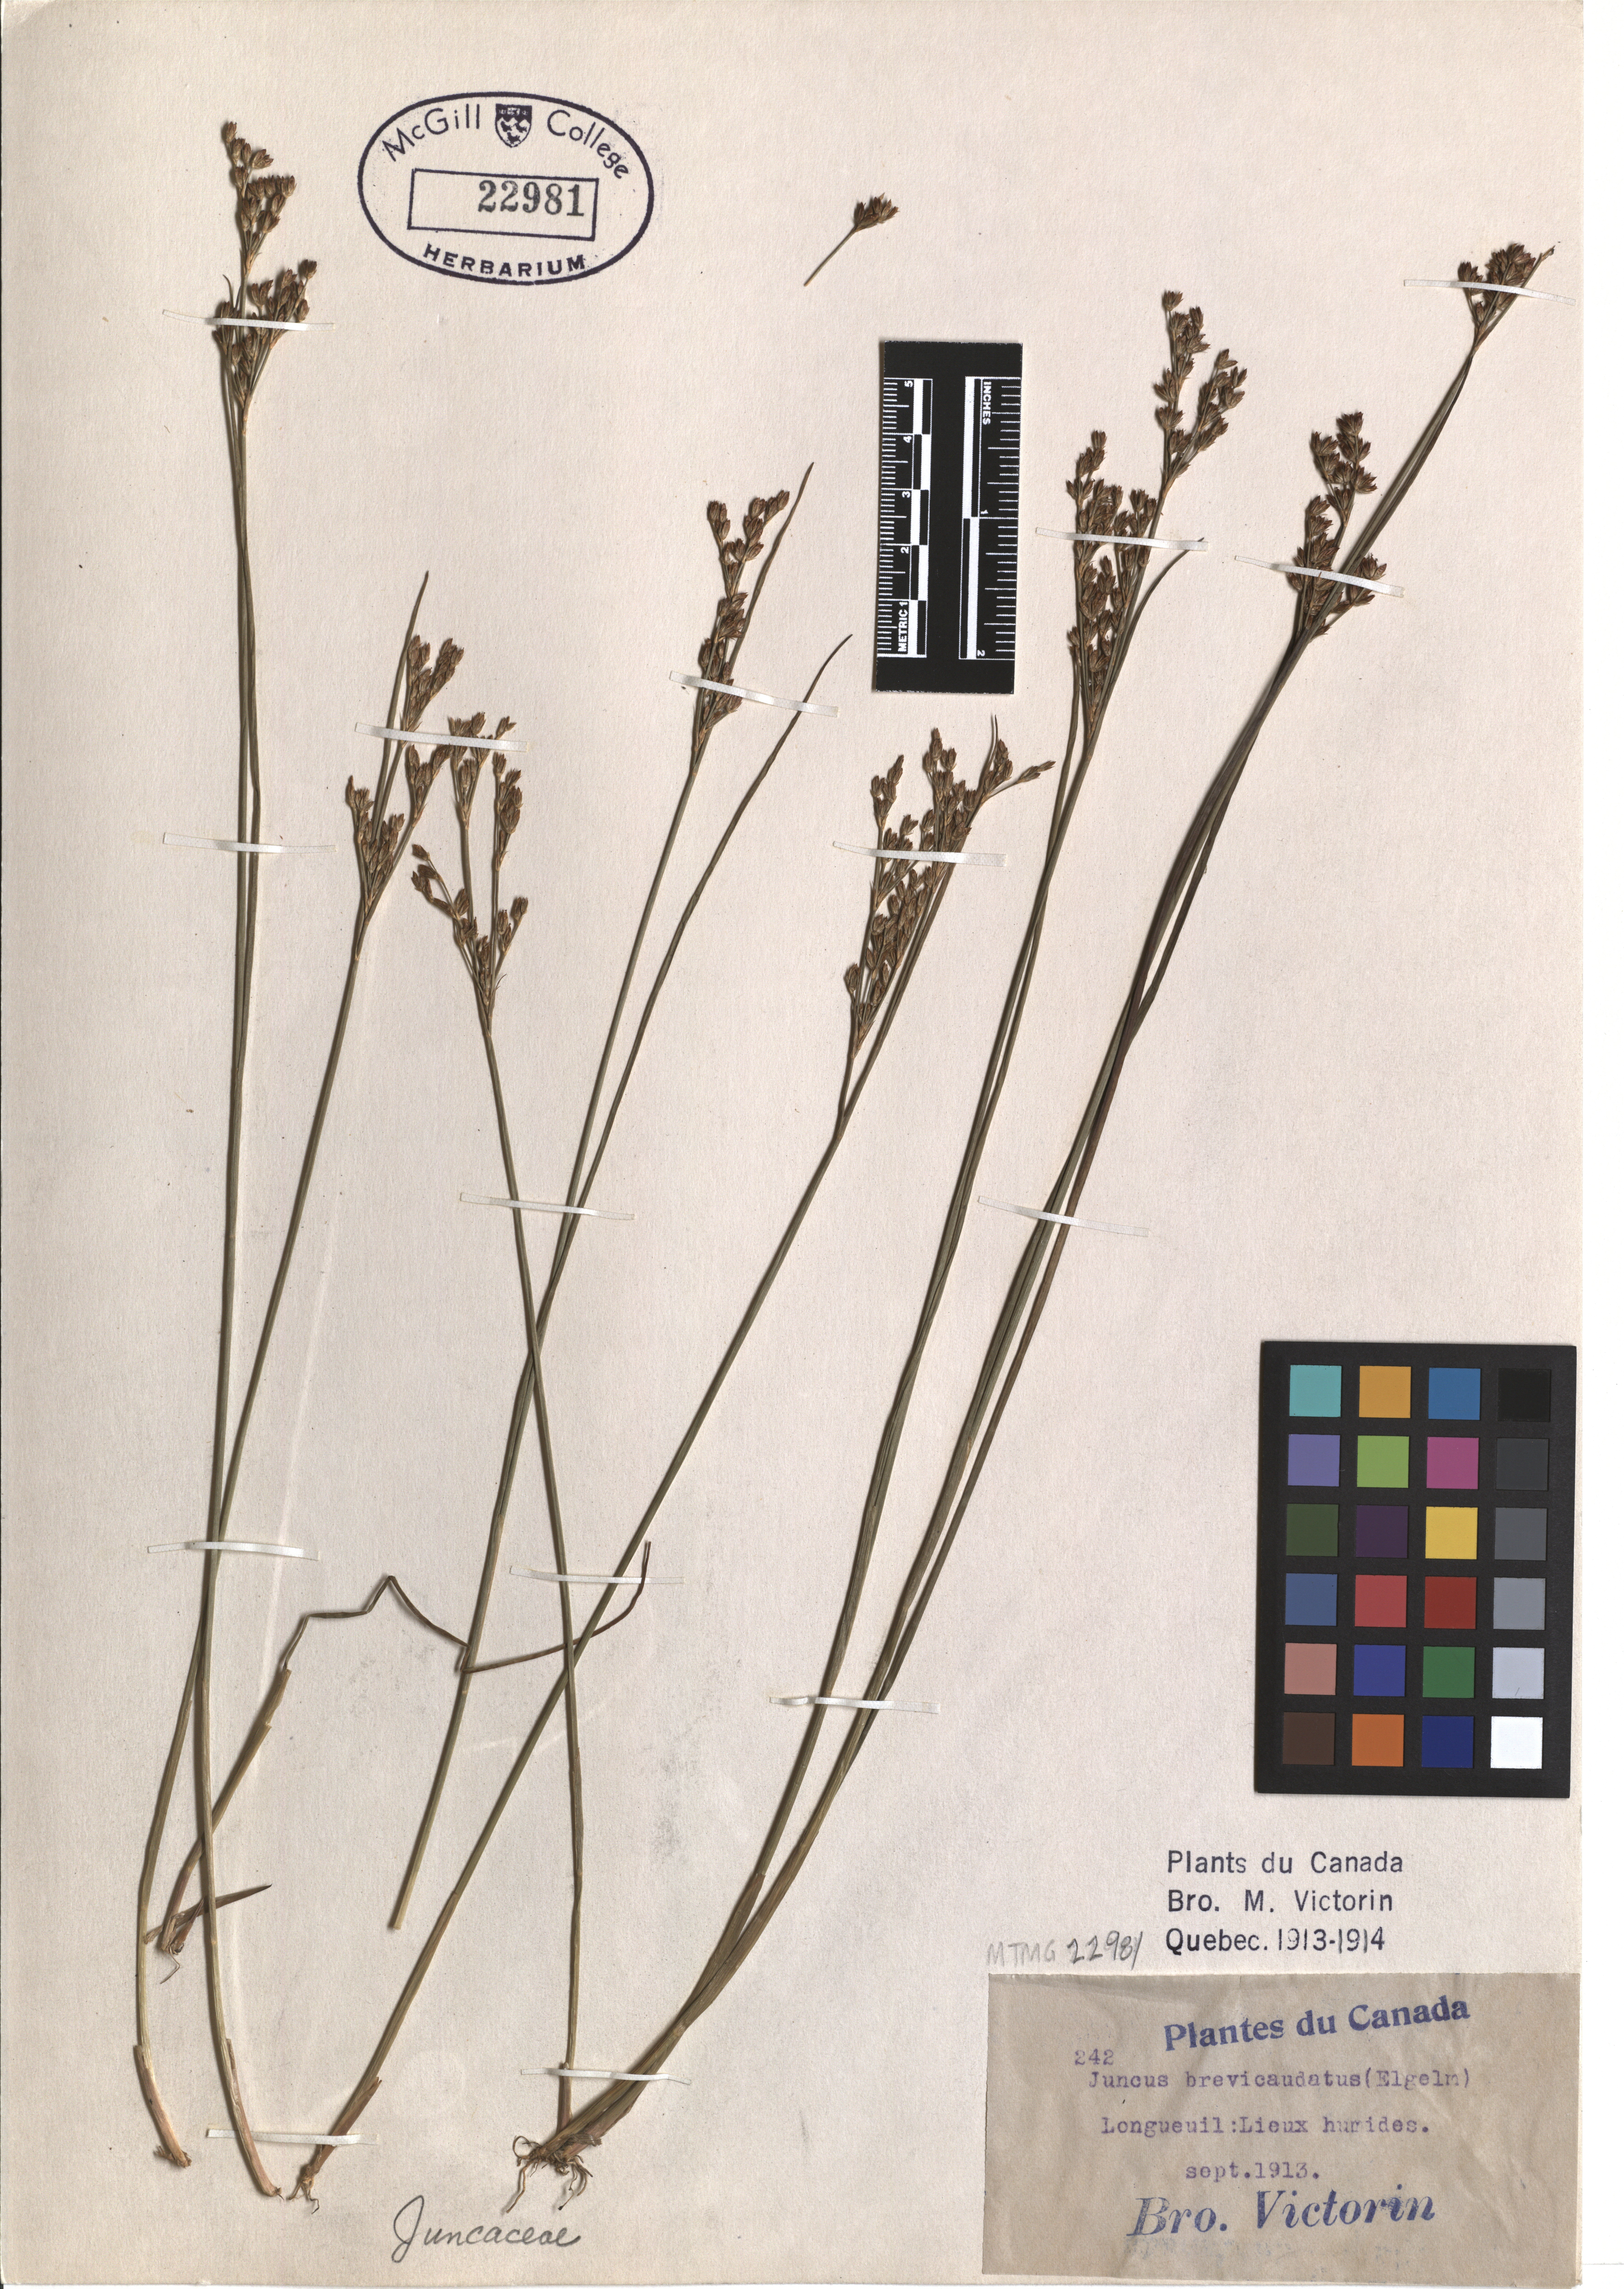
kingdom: Plantae
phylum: Tracheophyta
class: Liliopsida
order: Poales
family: Juncaceae
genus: Juncus
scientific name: Juncus brevicaudatus
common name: Narrow-panicle rush
